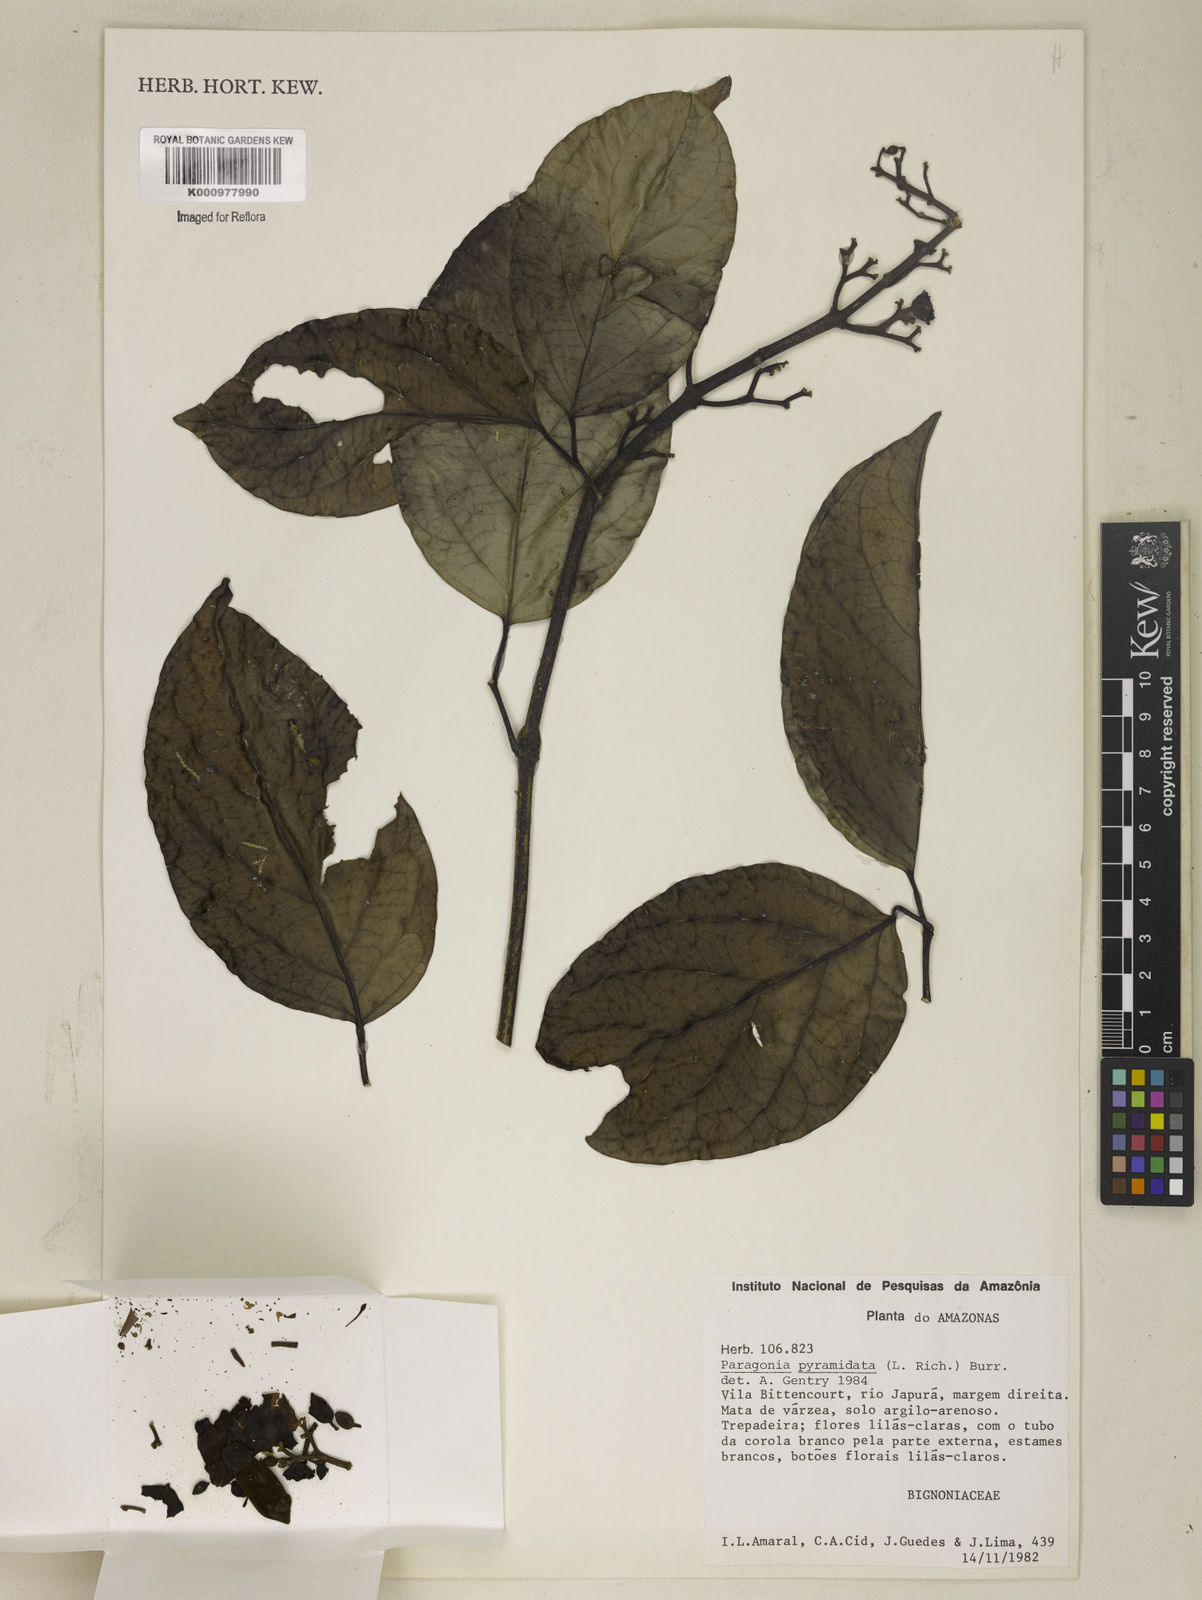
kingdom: Plantae
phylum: Tracheophyta
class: Magnoliopsida
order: Lamiales
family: Bignoniaceae
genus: Tanaecium
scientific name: Tanaecium pyramidatum
